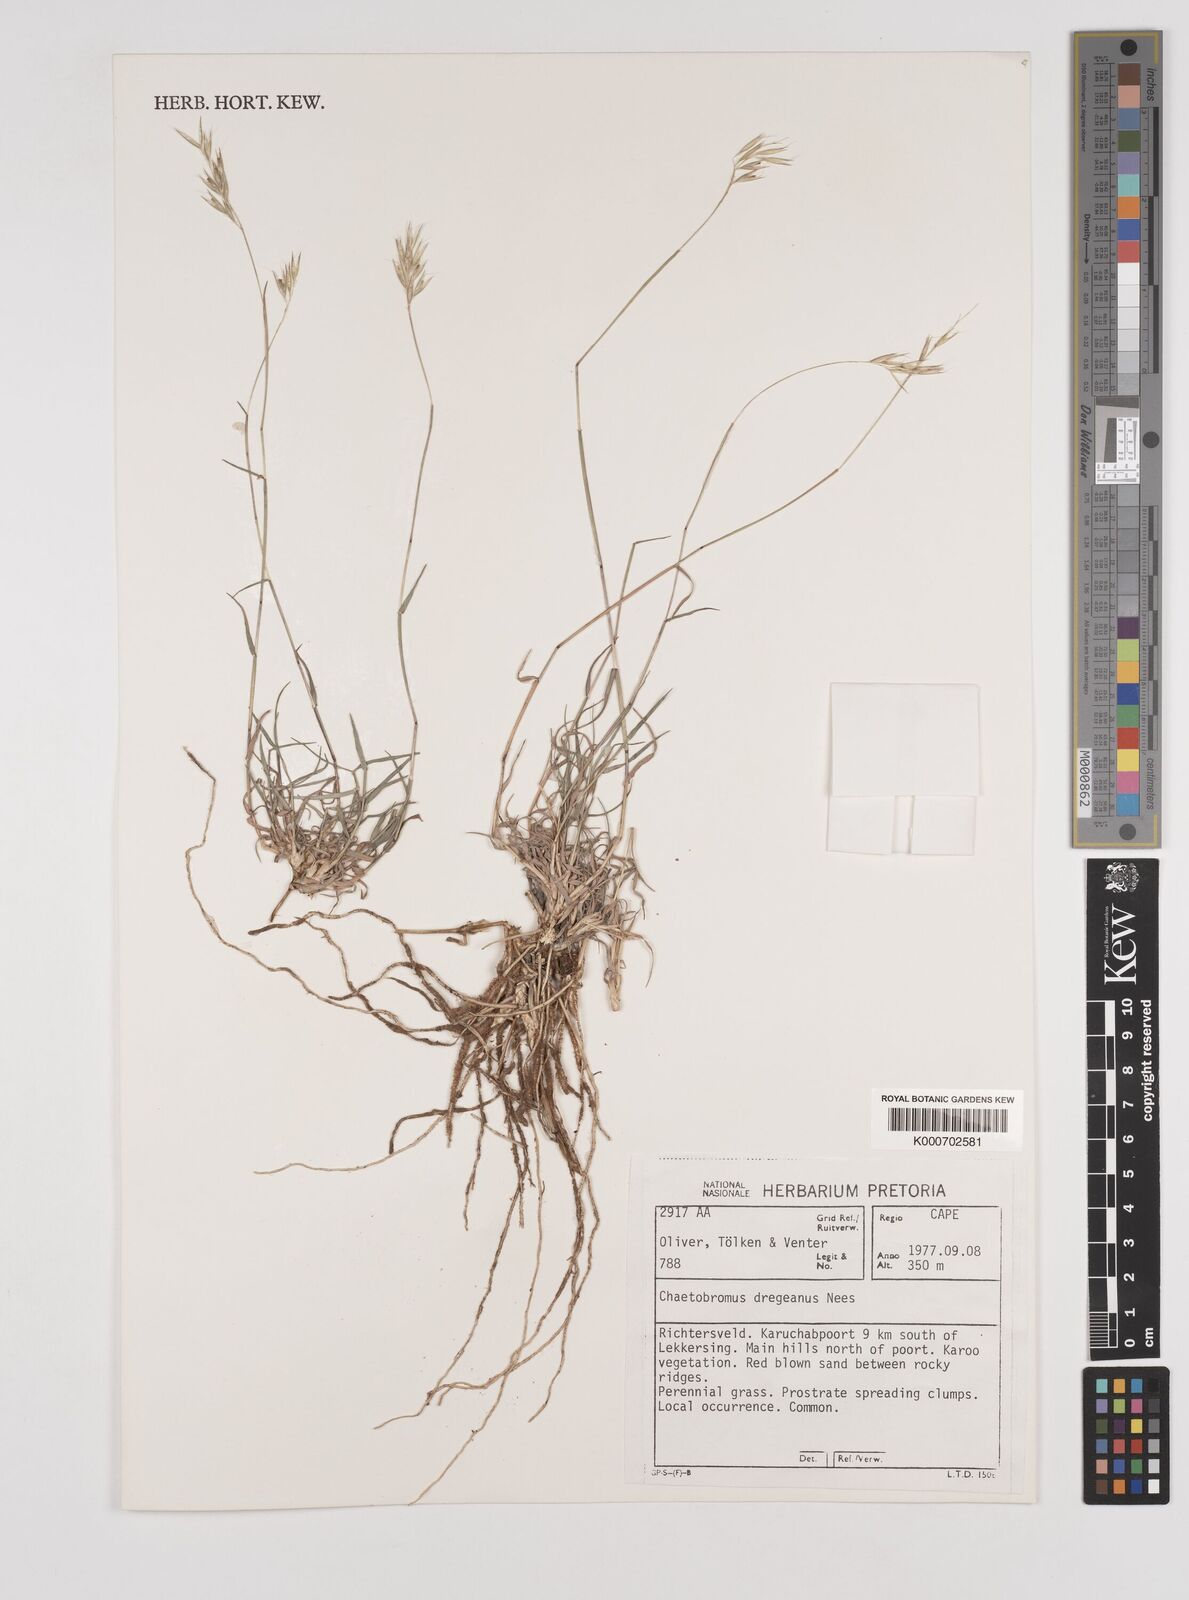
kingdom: Plantae
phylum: Tracheophyta
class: Liliopsida
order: Poales
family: Poaceae
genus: Chaetobromus
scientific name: Chaetobromus involucratus
